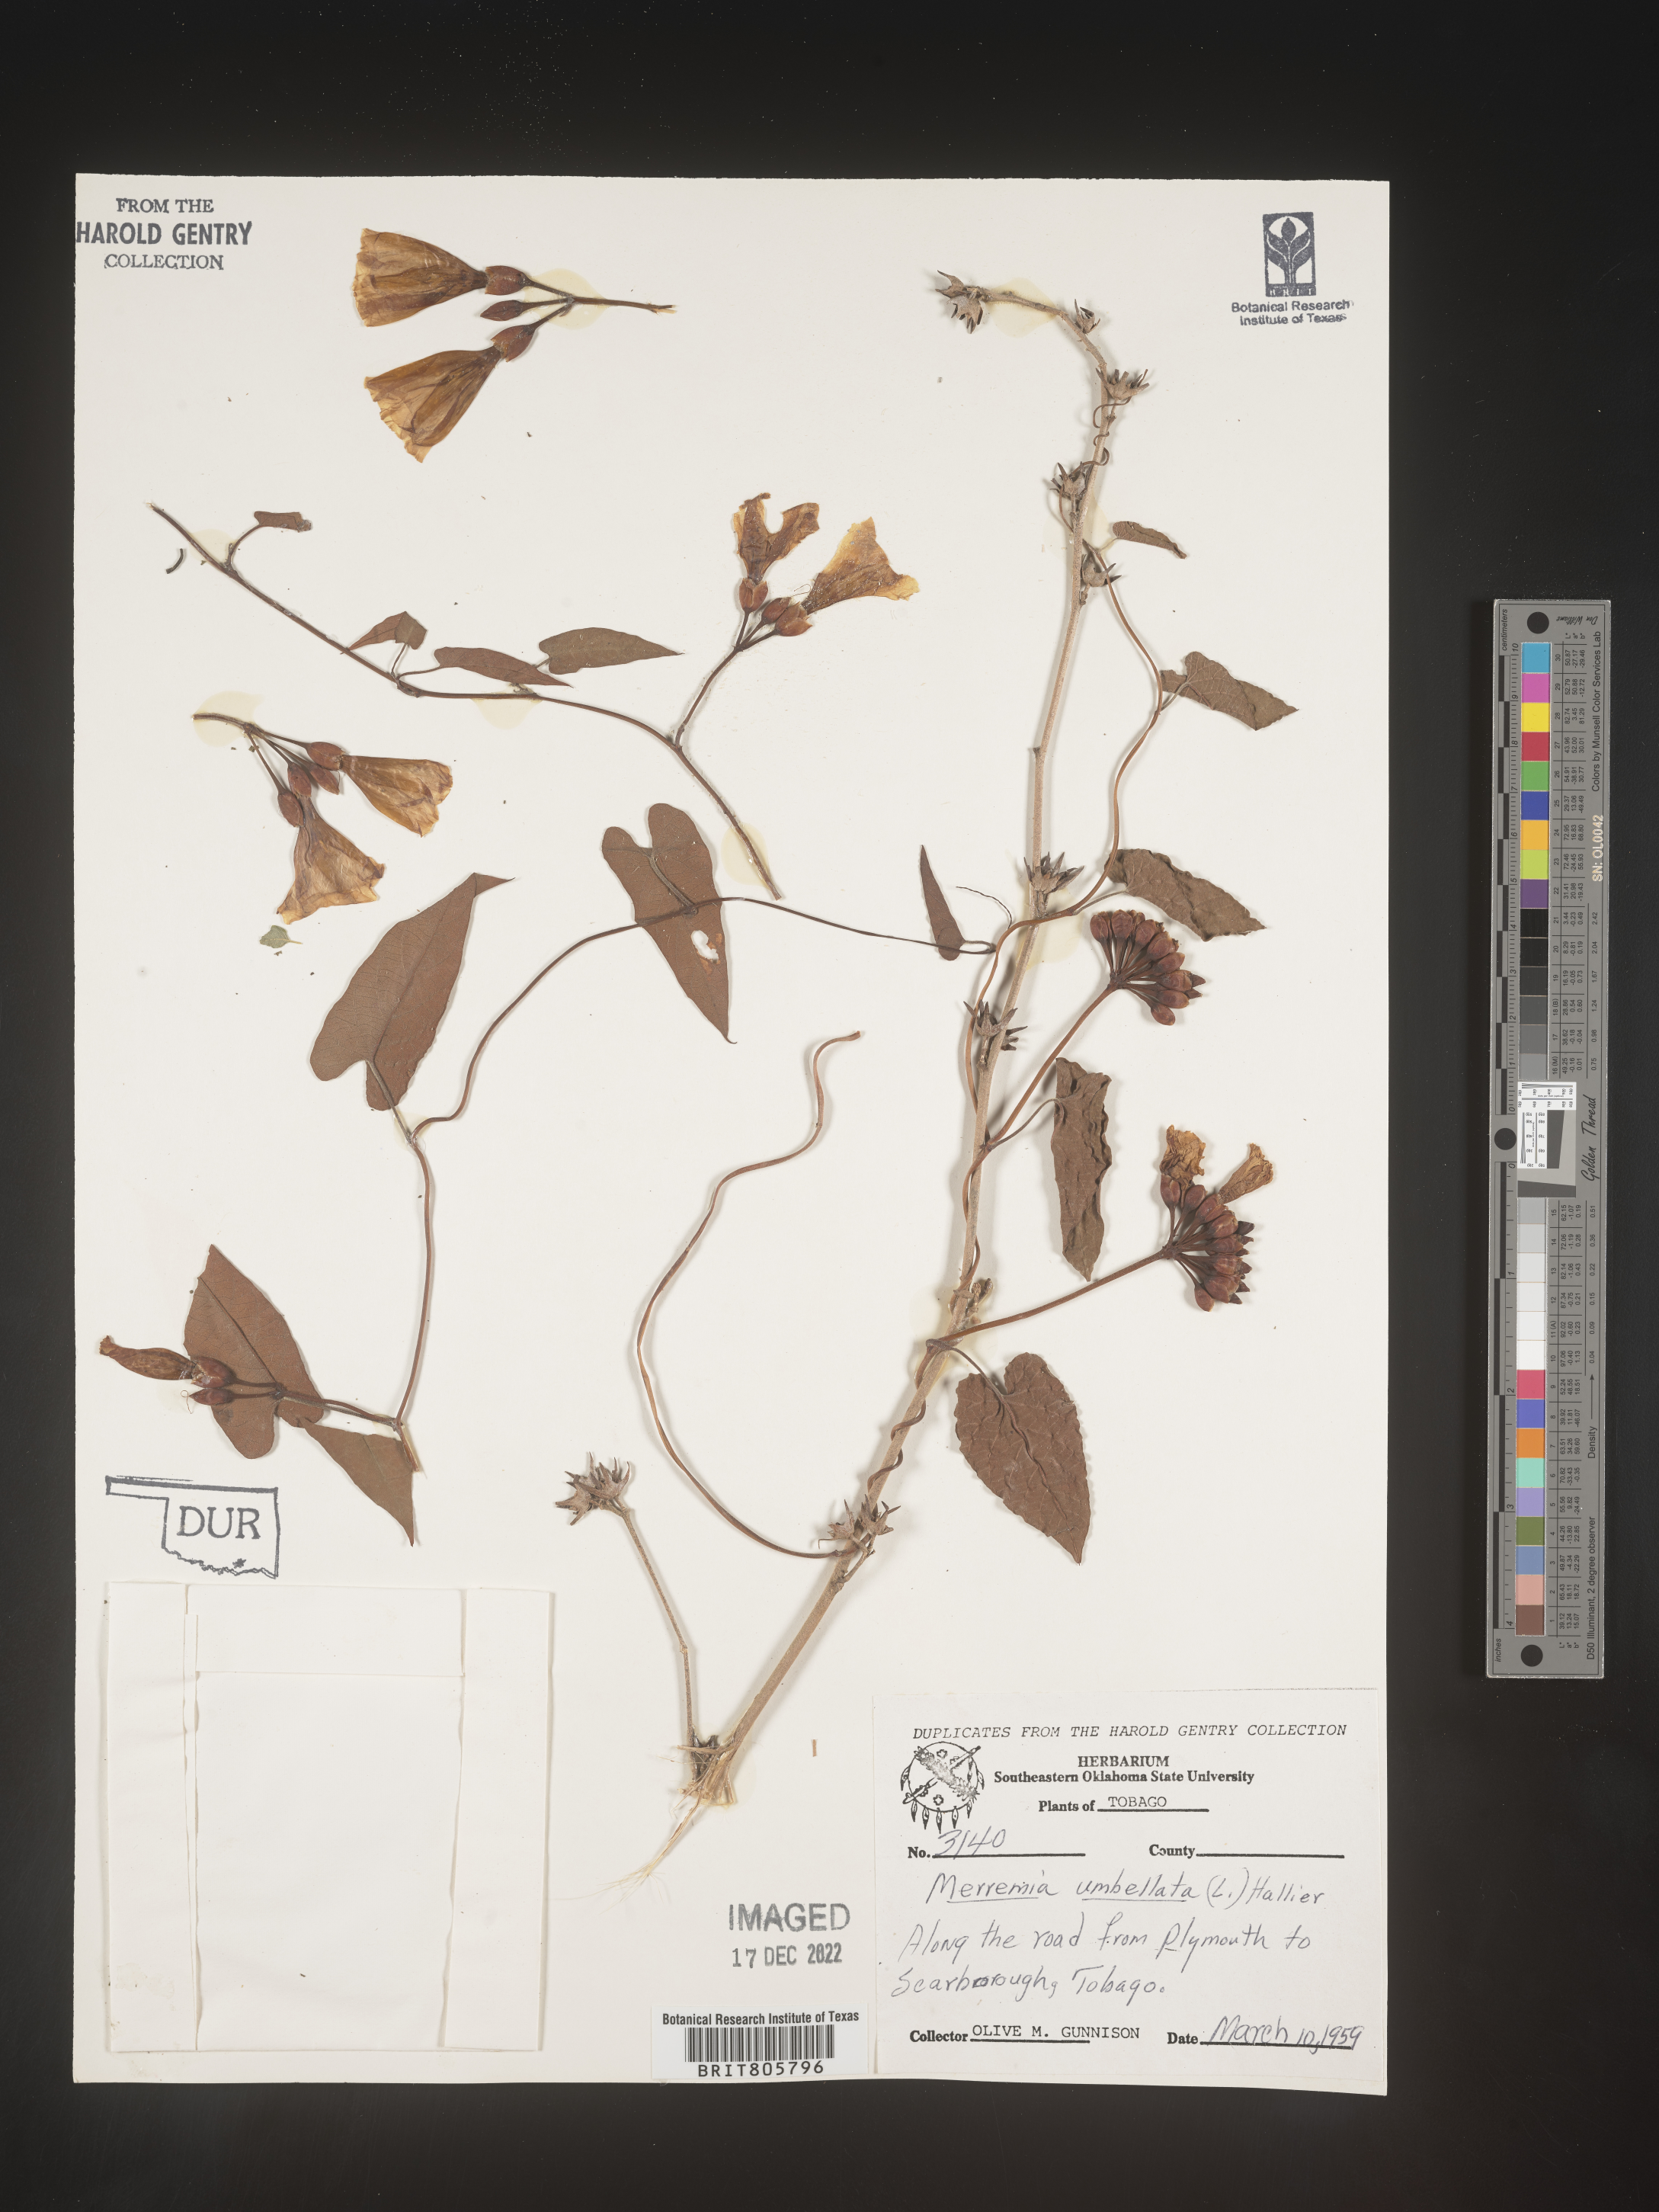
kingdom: Plantae
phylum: Tracheophyta
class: Magnoliopsida
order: Solanales
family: Convolvulaceae
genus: Merremia
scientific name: Merremia
